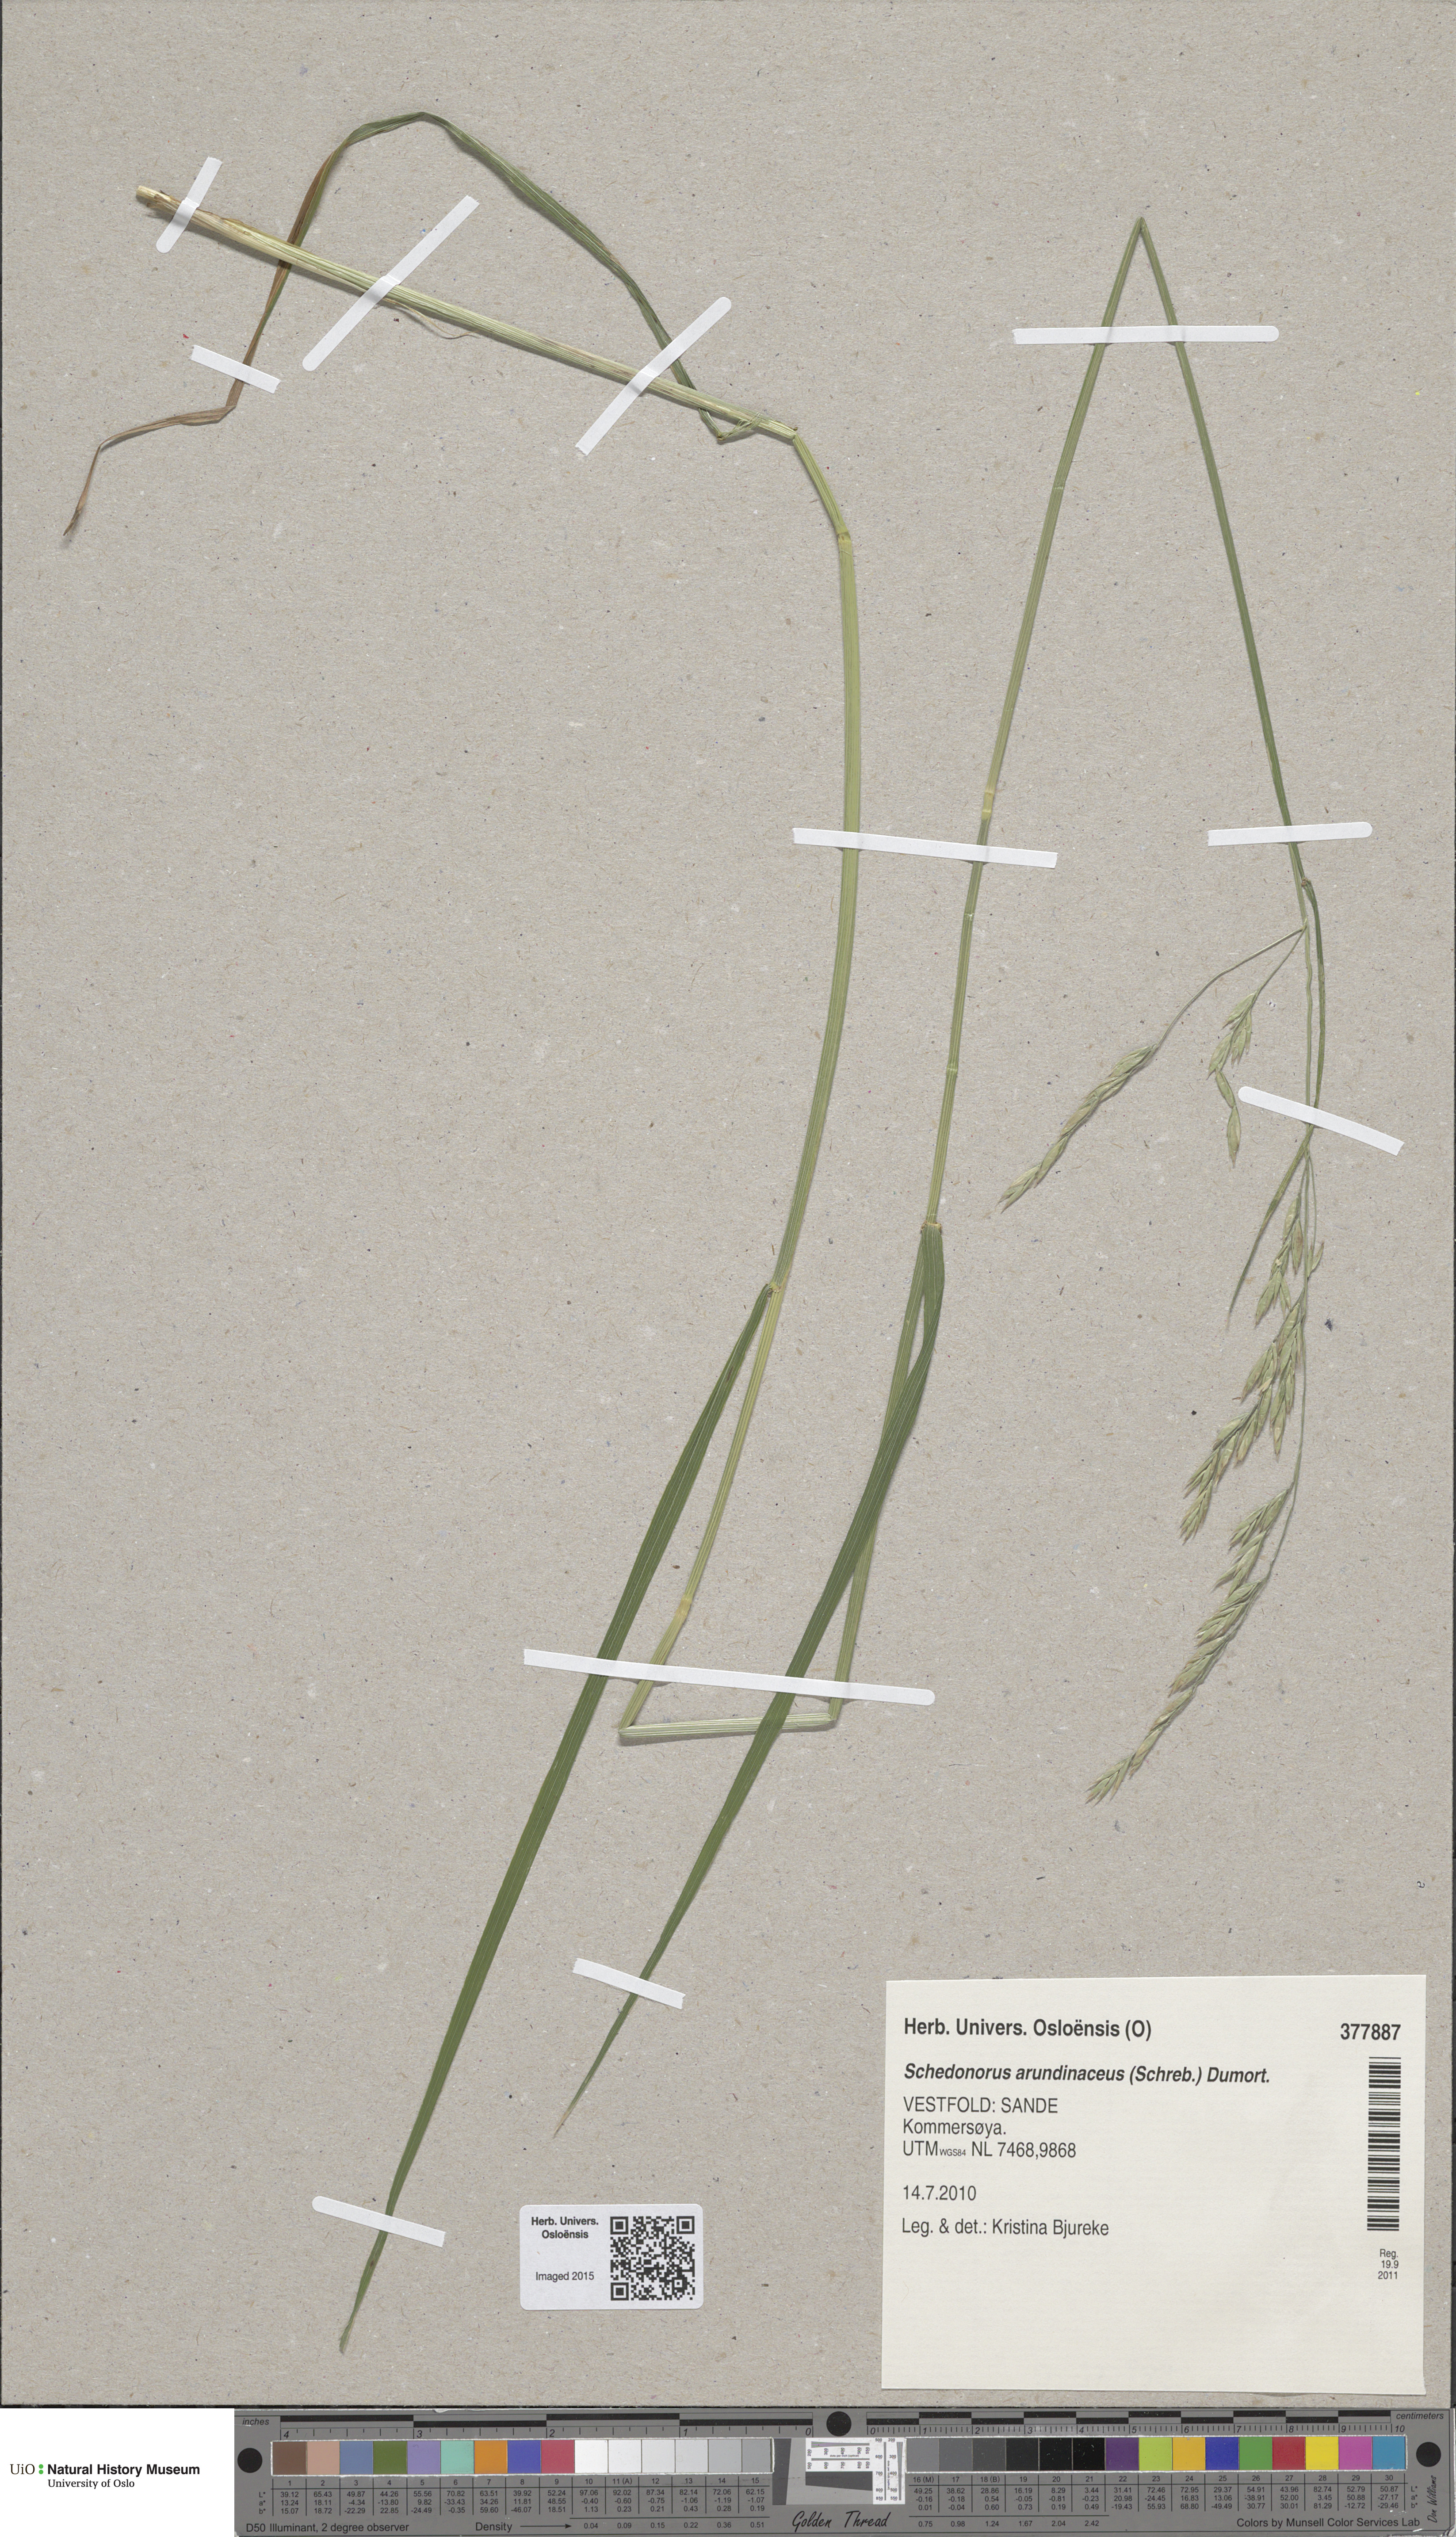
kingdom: Plantae
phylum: Tracheophyta
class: Liliopsida
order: Poales
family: Poaceae
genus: Lolium
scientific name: Lolium arundinaceum
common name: Reed fescue
